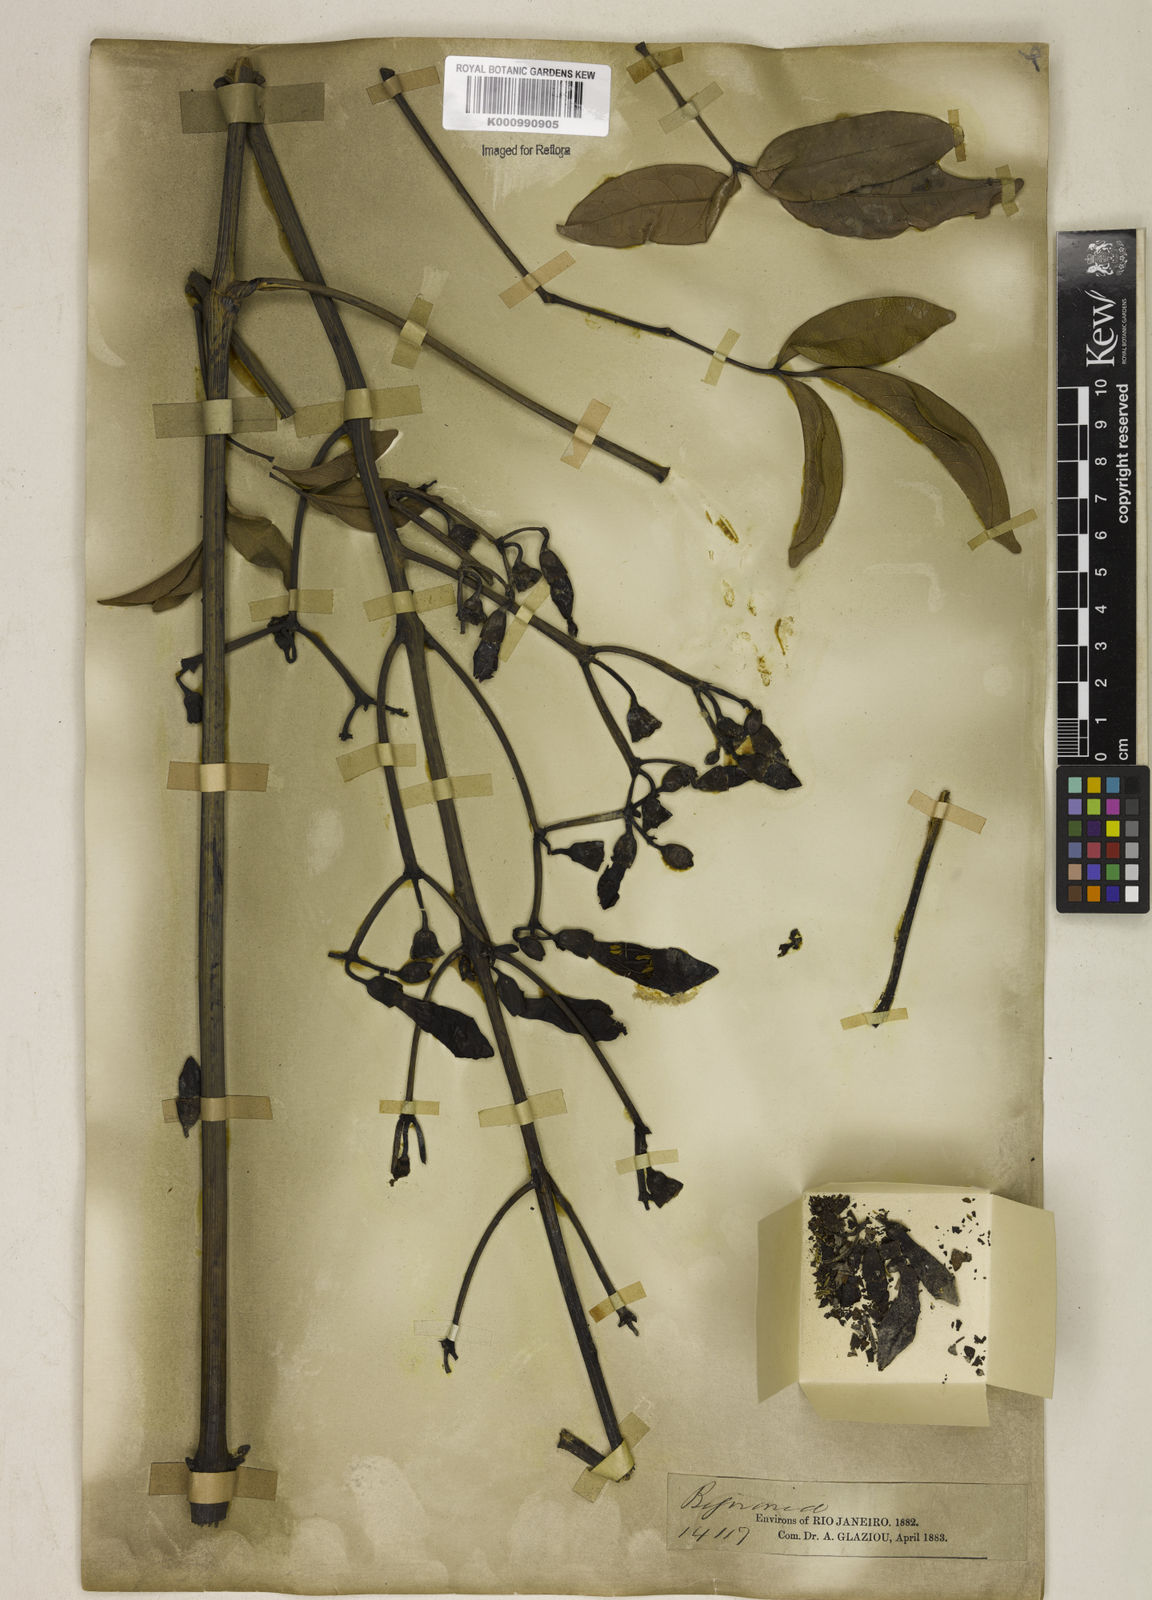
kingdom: Plantae
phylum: Tracheophyta
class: Magnoliopsida
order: Lamiales
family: Bignoniaceae
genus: Adenocalymma
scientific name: Adenocalymma pedunculatum
